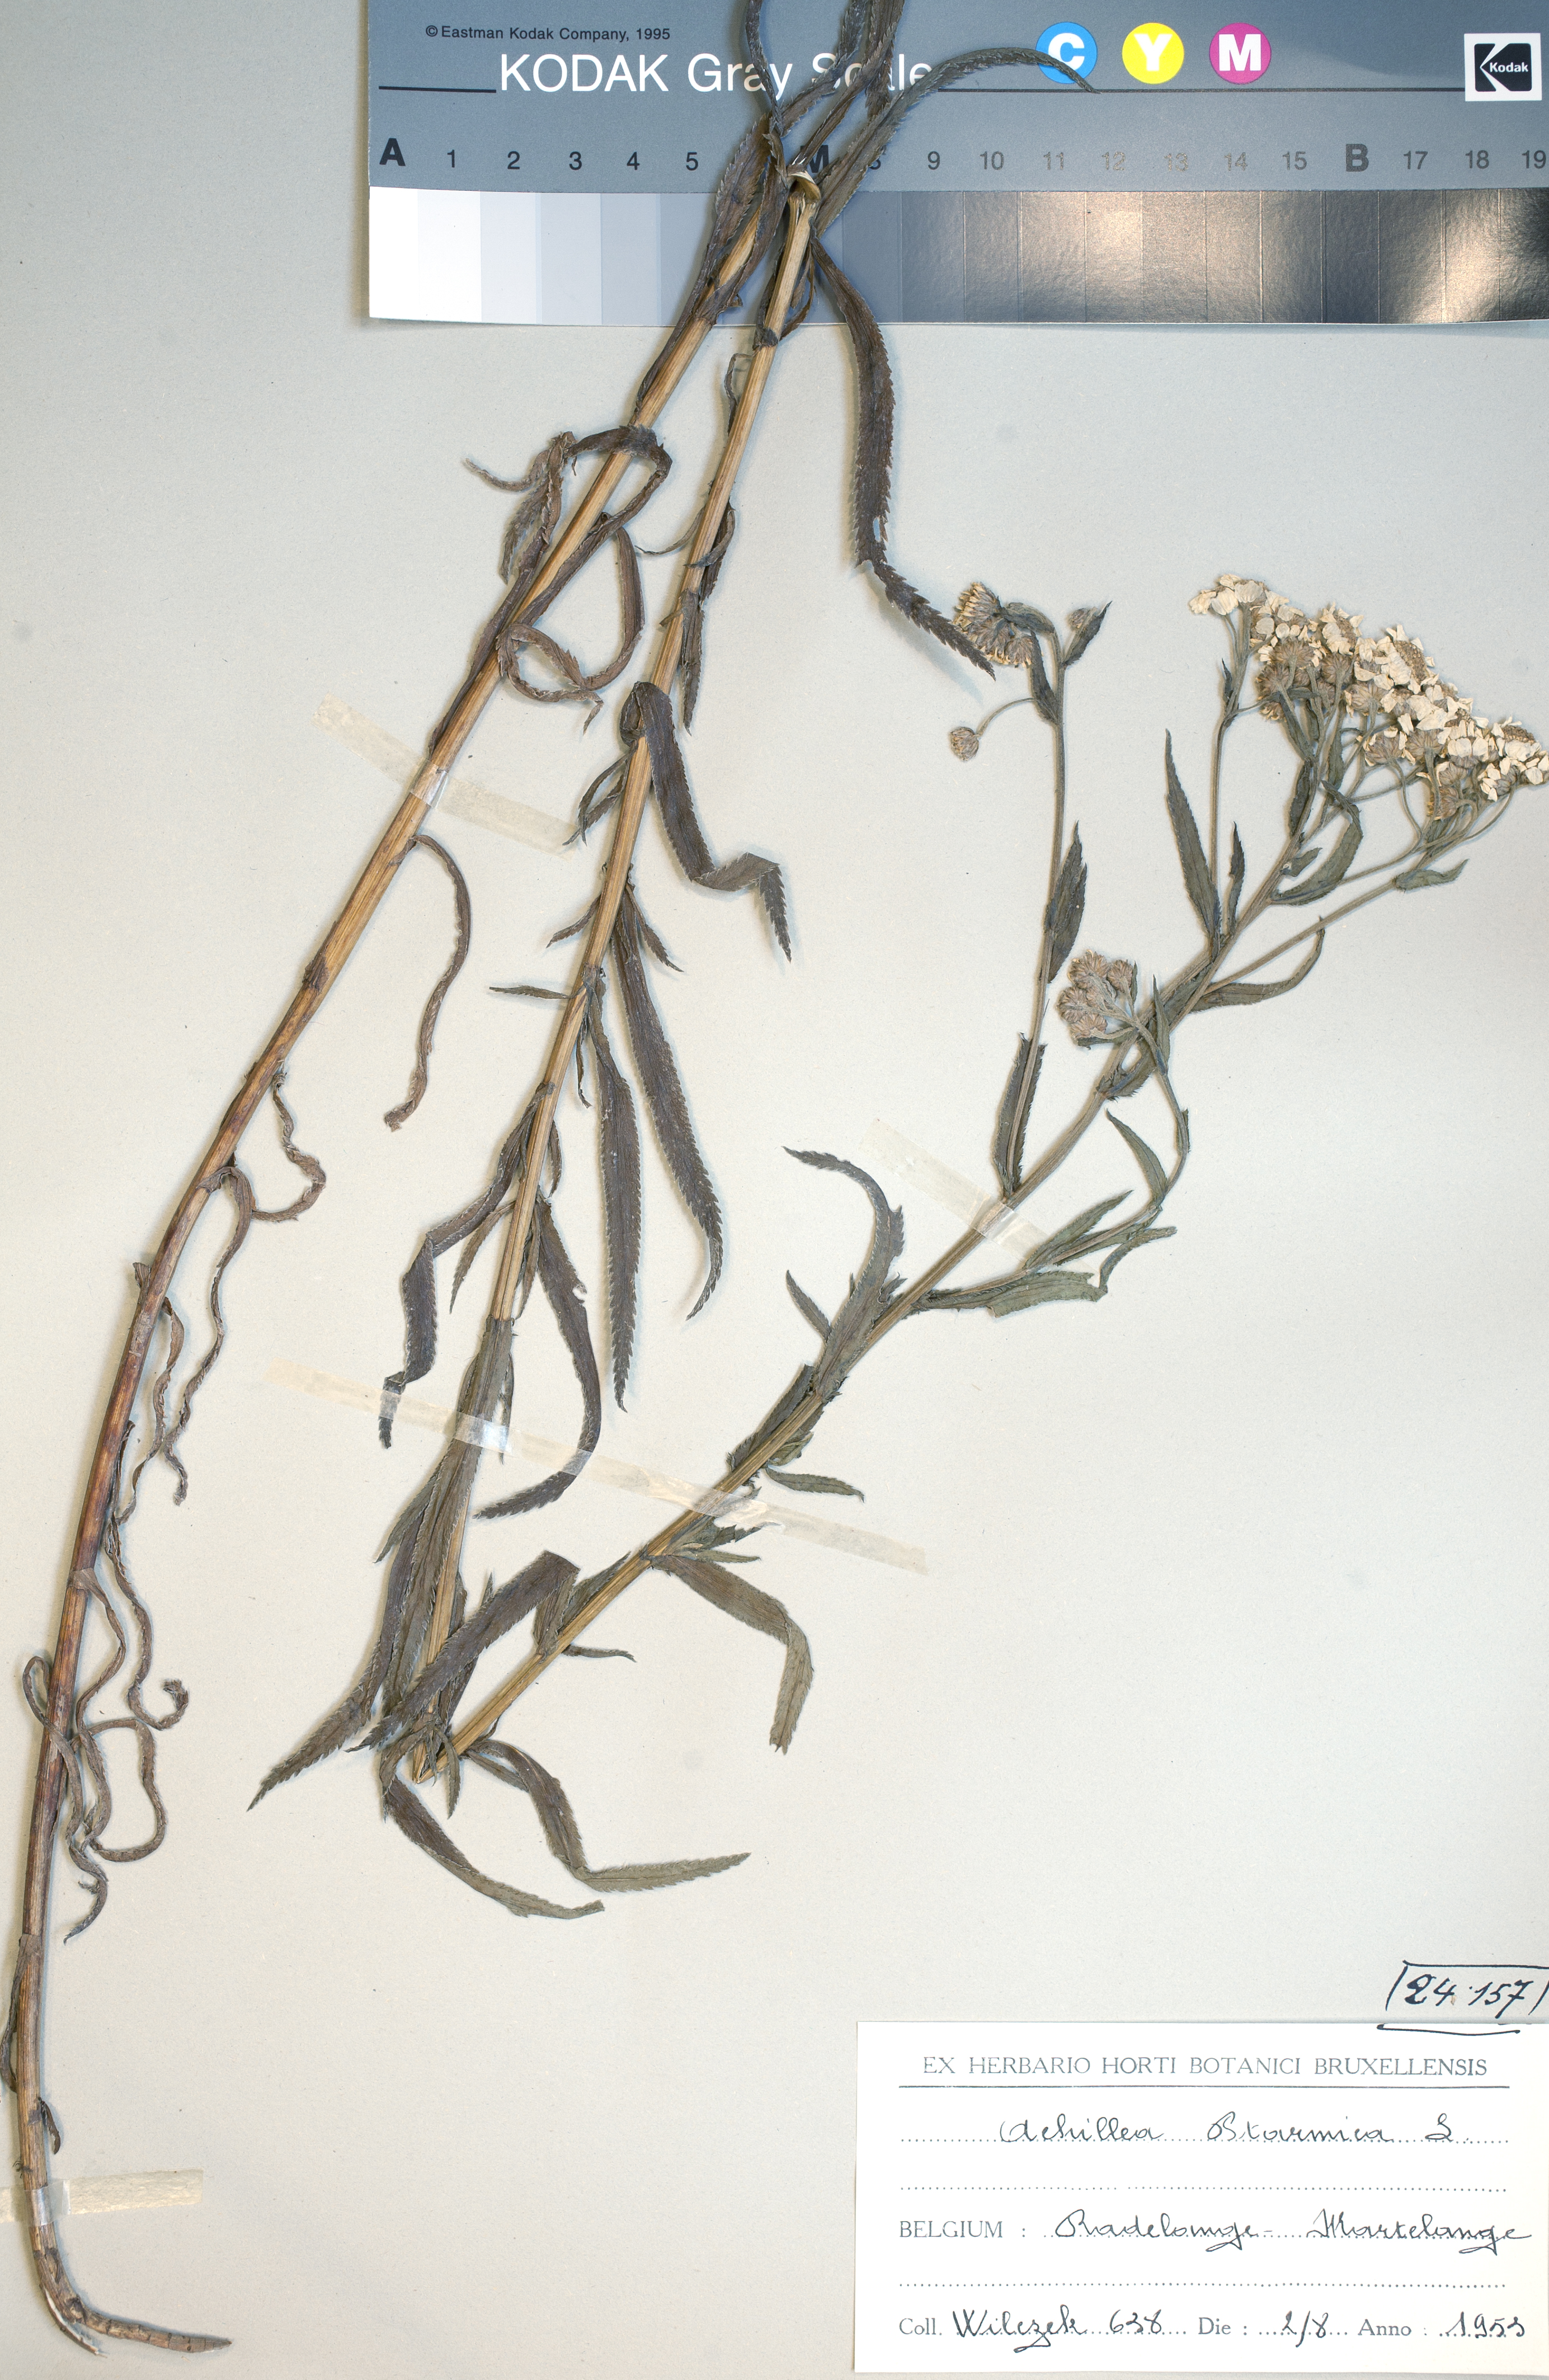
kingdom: Plantae
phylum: Tracheophyta
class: Magnoliopsida
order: Asterales
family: Asteraceae
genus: Achillea
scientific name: Achillea ptarmica
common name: Sneezeweed
